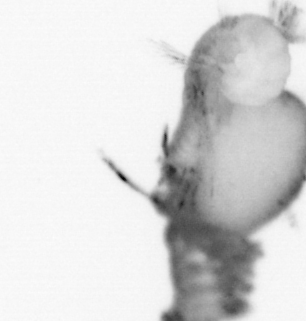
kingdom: Animalia
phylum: Annelida
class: Polychaeta
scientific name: Polychaeta
